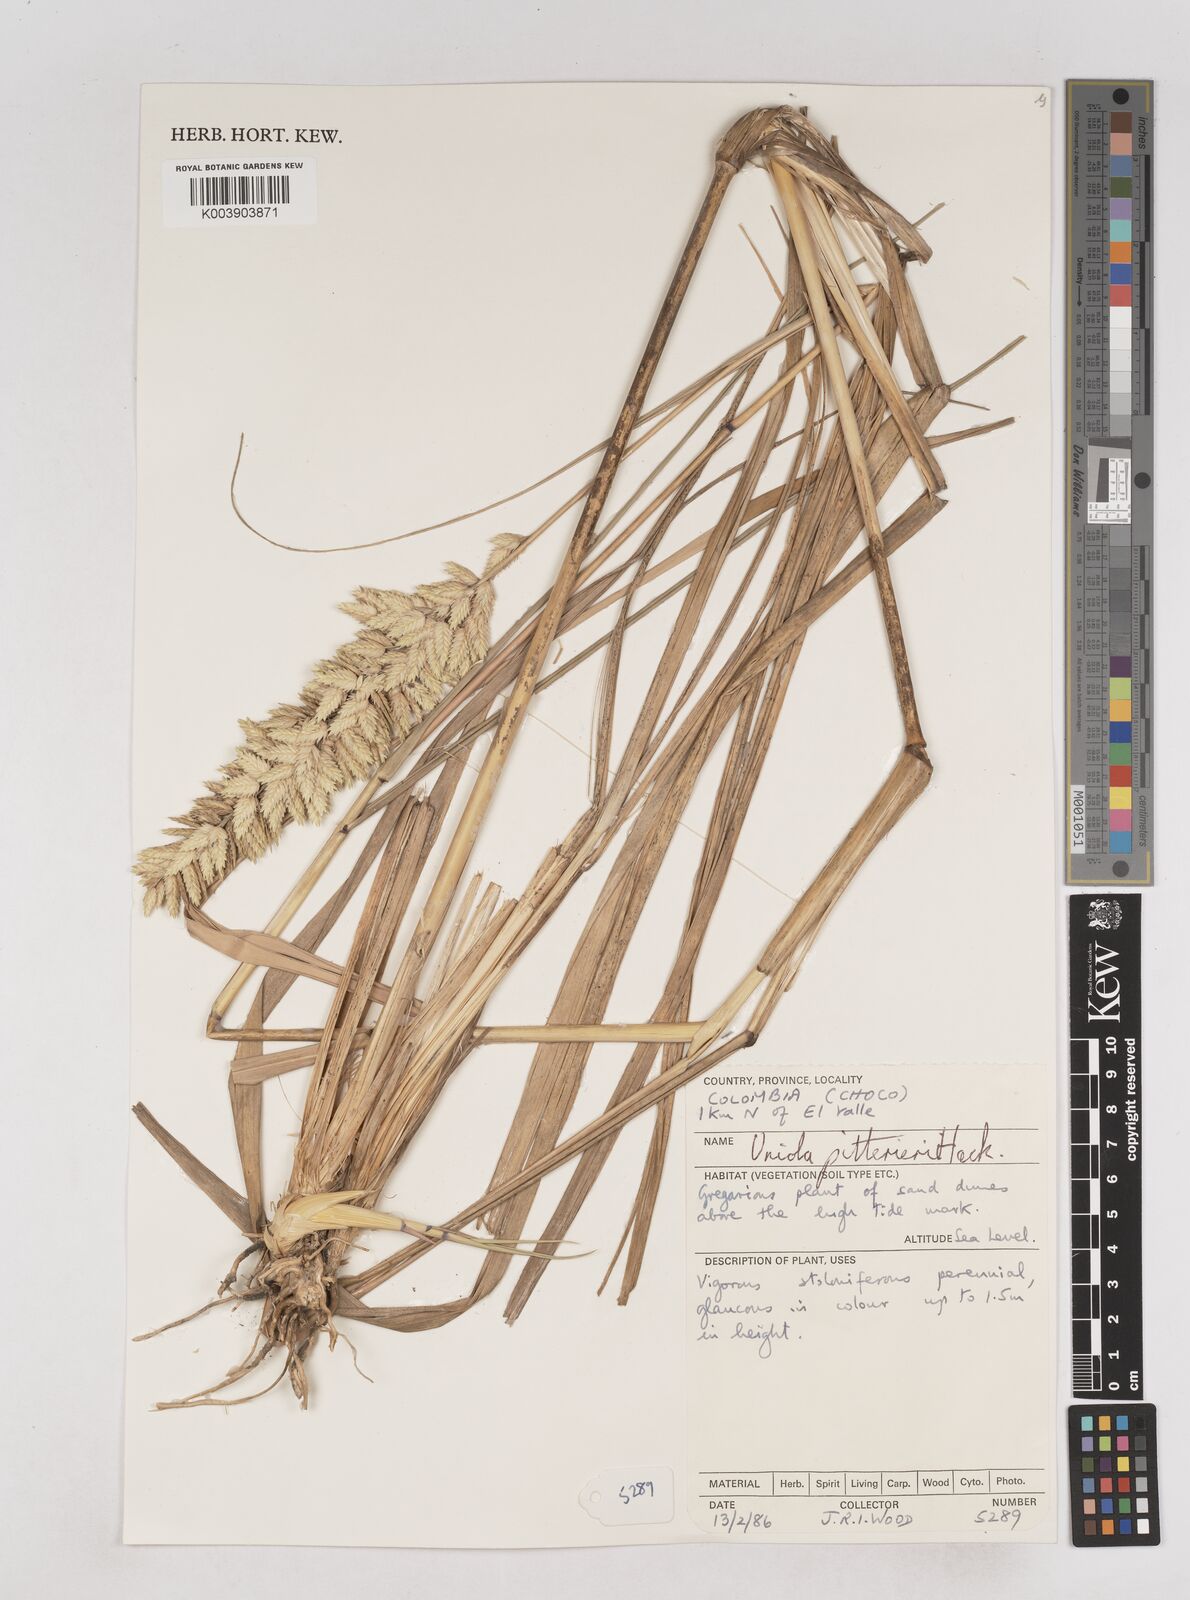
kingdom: Plantae
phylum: Tracheophyta
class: Liliopsida
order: Poales
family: Poaceae
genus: Uniola
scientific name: Uniola pittieri
